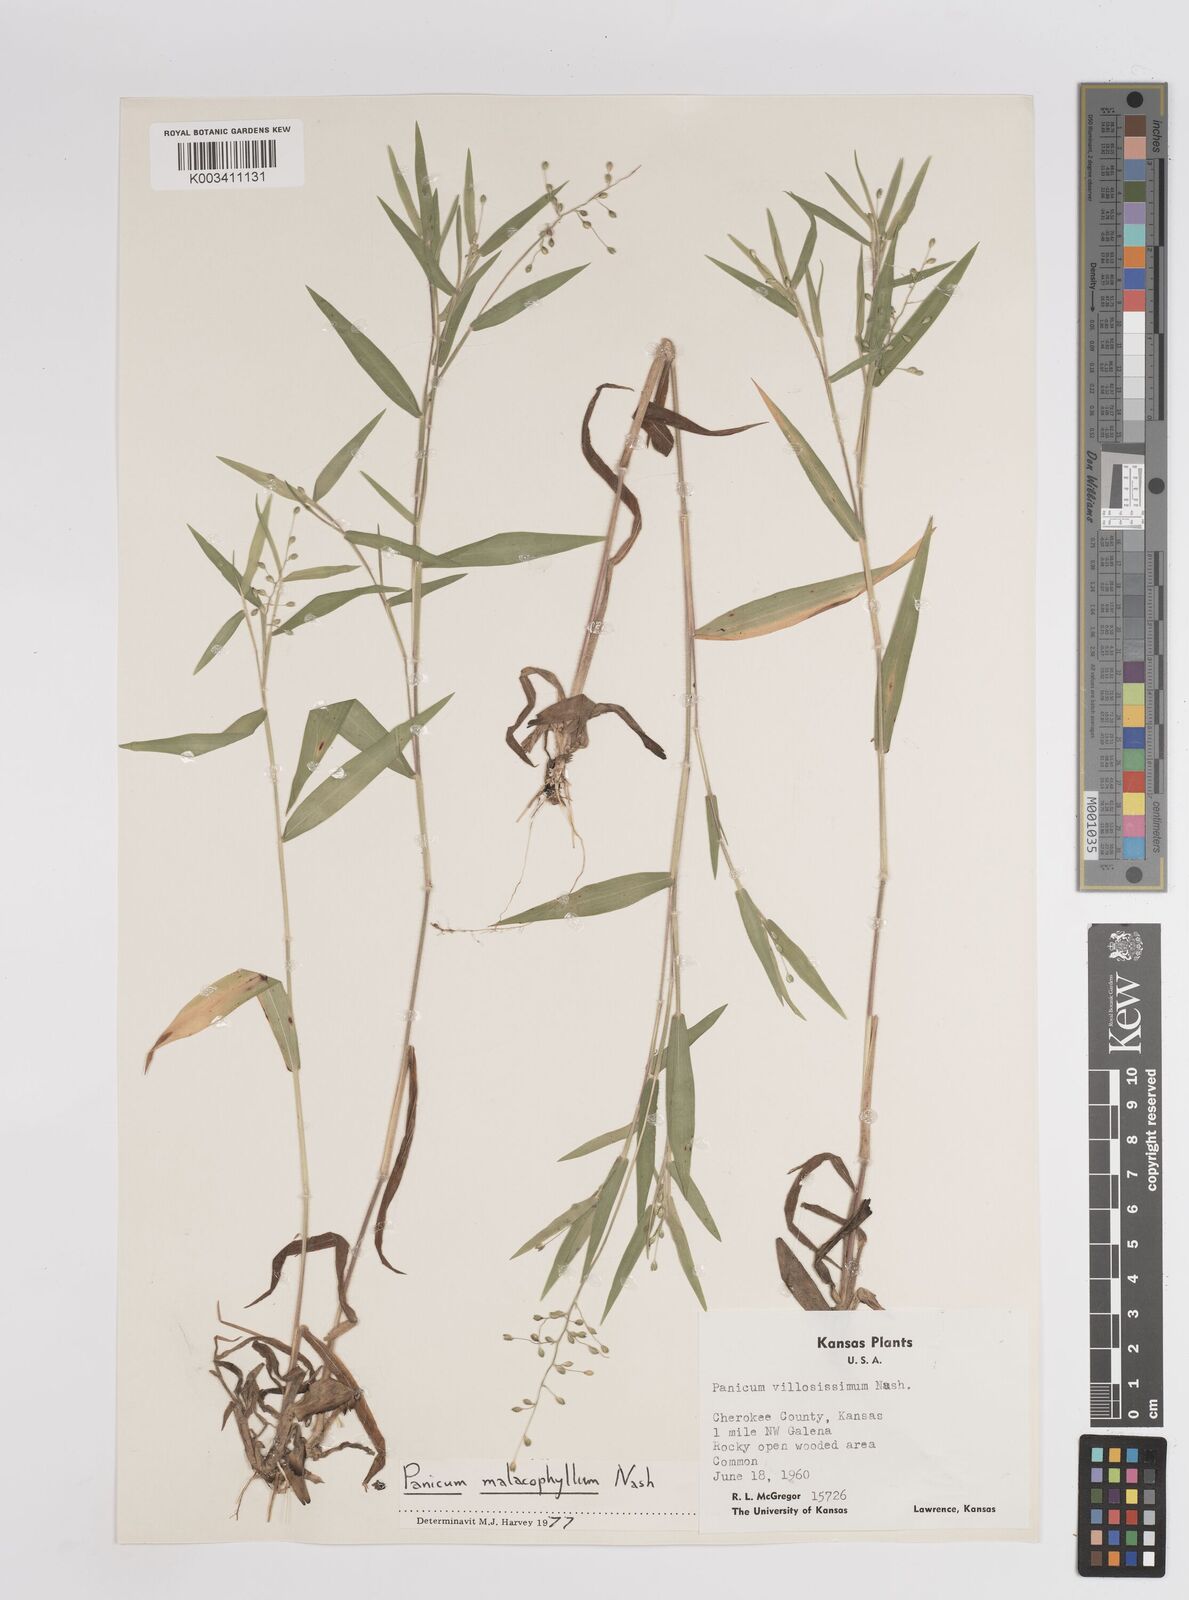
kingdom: Plantae
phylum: Tracheophyta
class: Liliopsida
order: Poales
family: Poaceae
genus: Dichanthelium
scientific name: Dichanthelium malacophyllum
